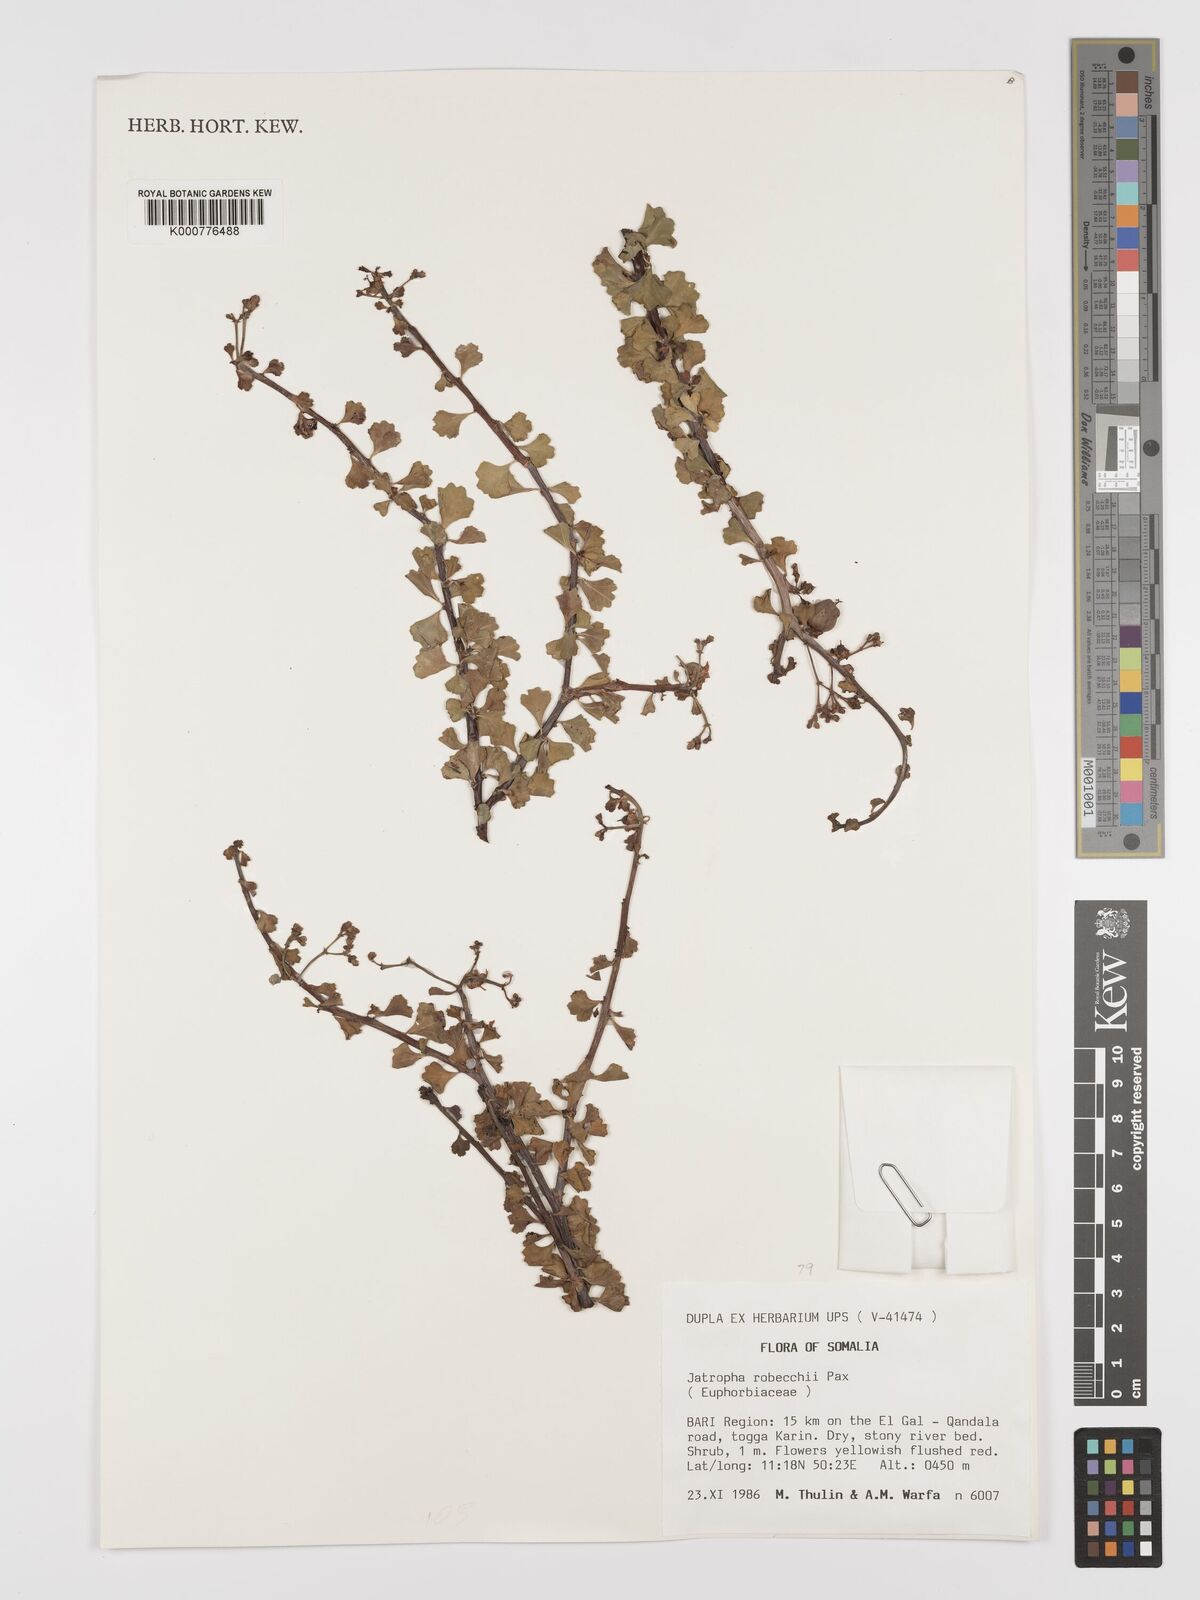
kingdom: Plantae
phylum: Tracheophyta
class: Magnoliopsida
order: Malpighiales
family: Euphorbiaceae
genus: Jatropha
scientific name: Jatropha robecchii
